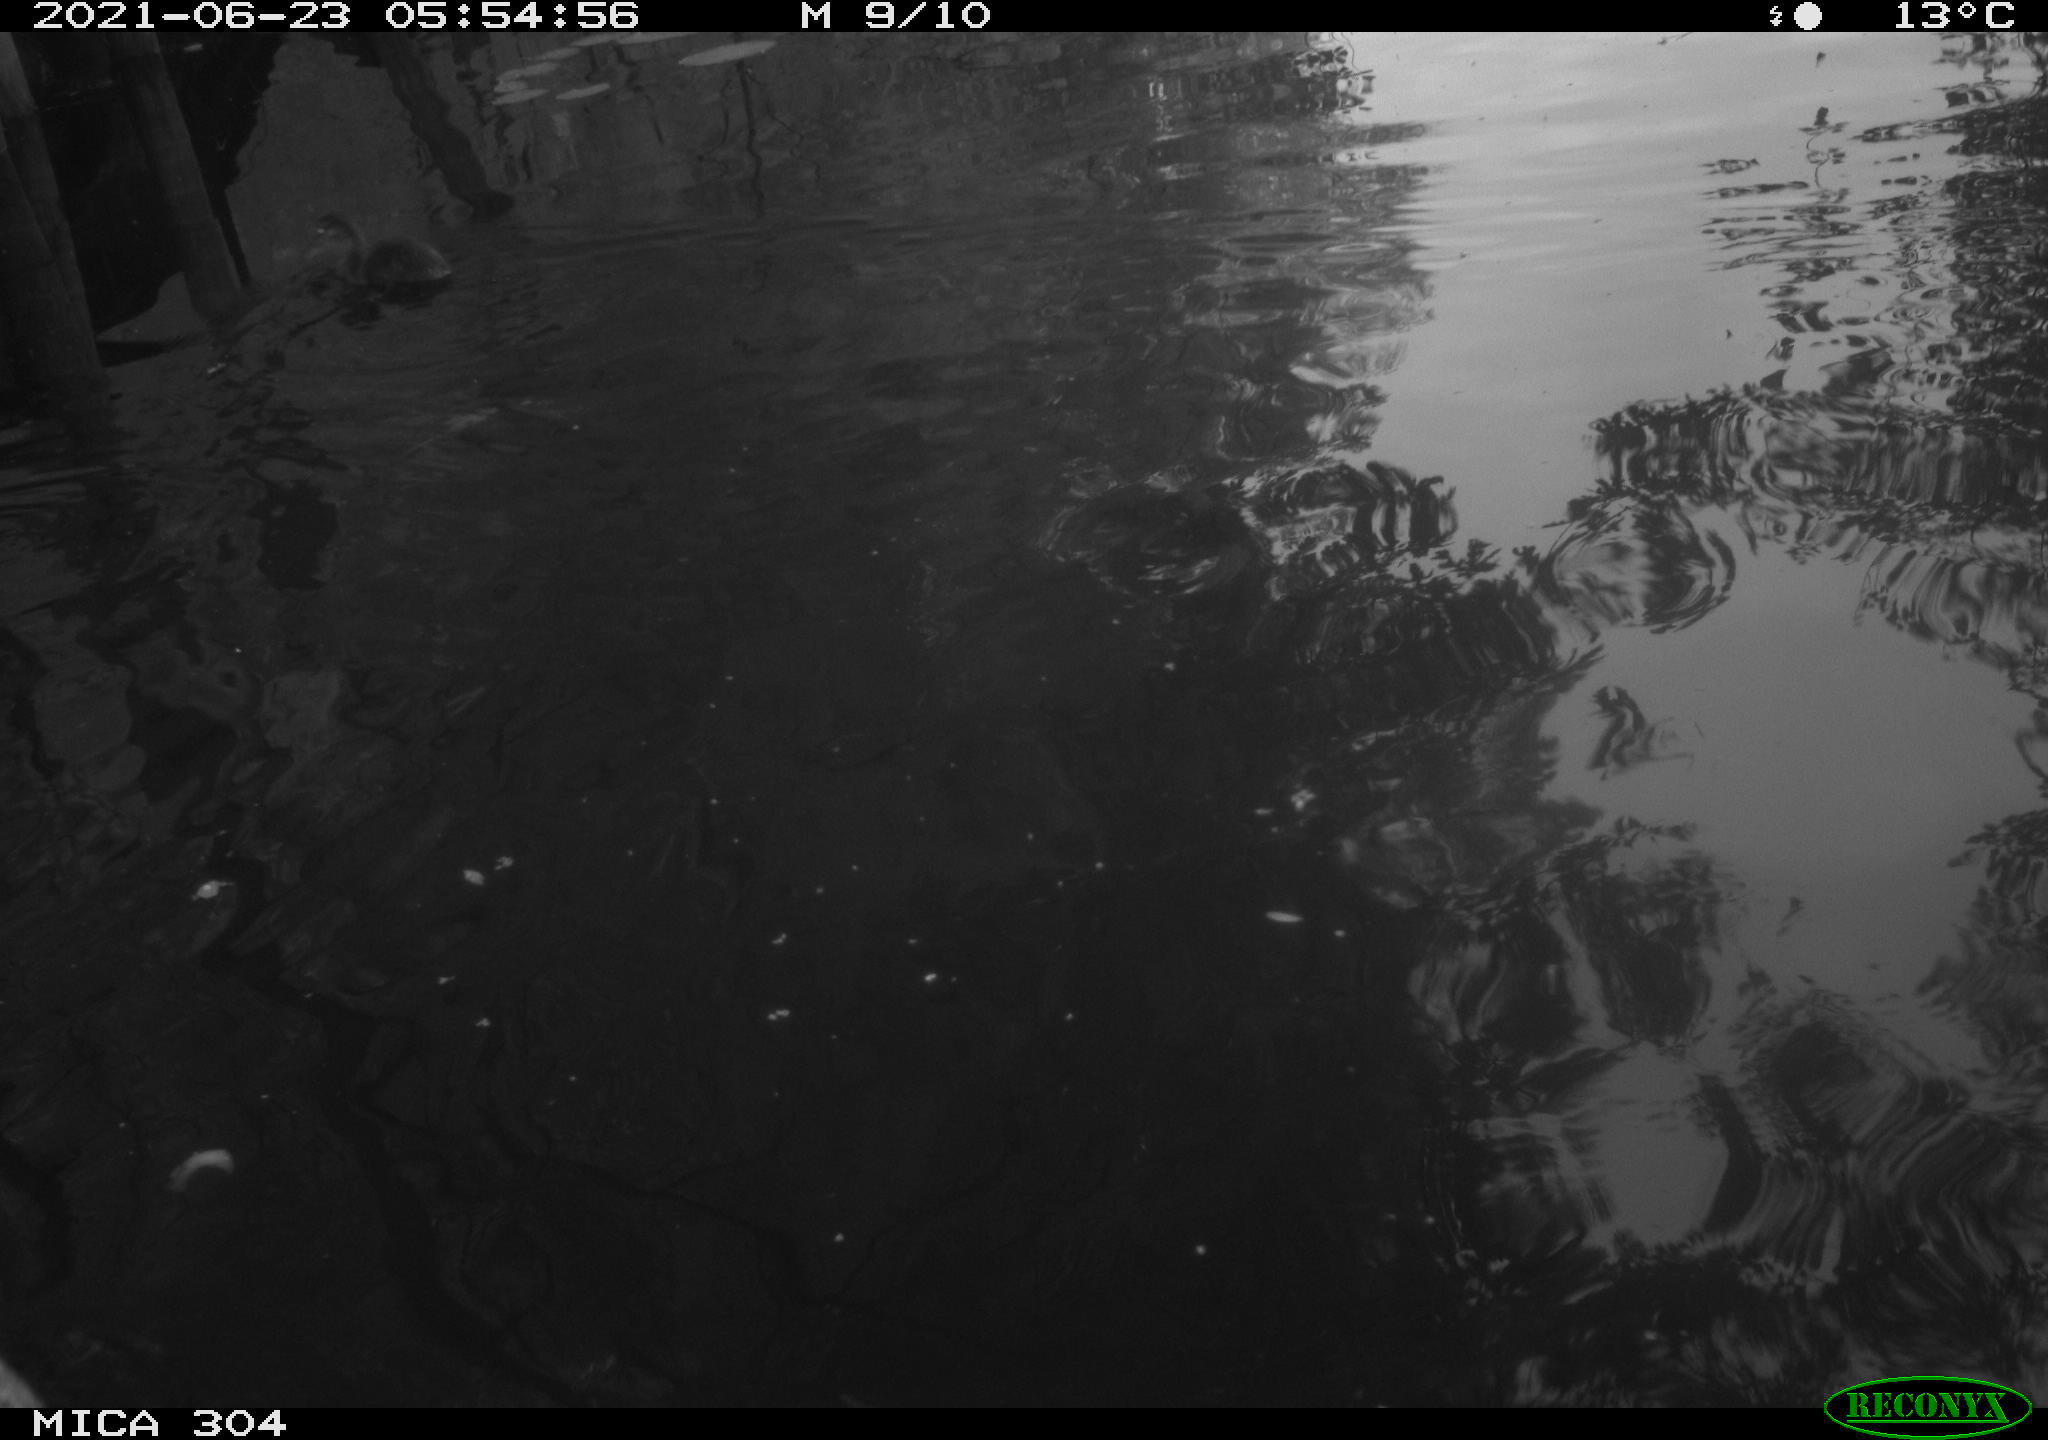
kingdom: Animalia
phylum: Chordata
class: Aves
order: Anseriformes
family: Anatidae
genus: Anas
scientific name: Anas platyrhynchos
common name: Mallard
